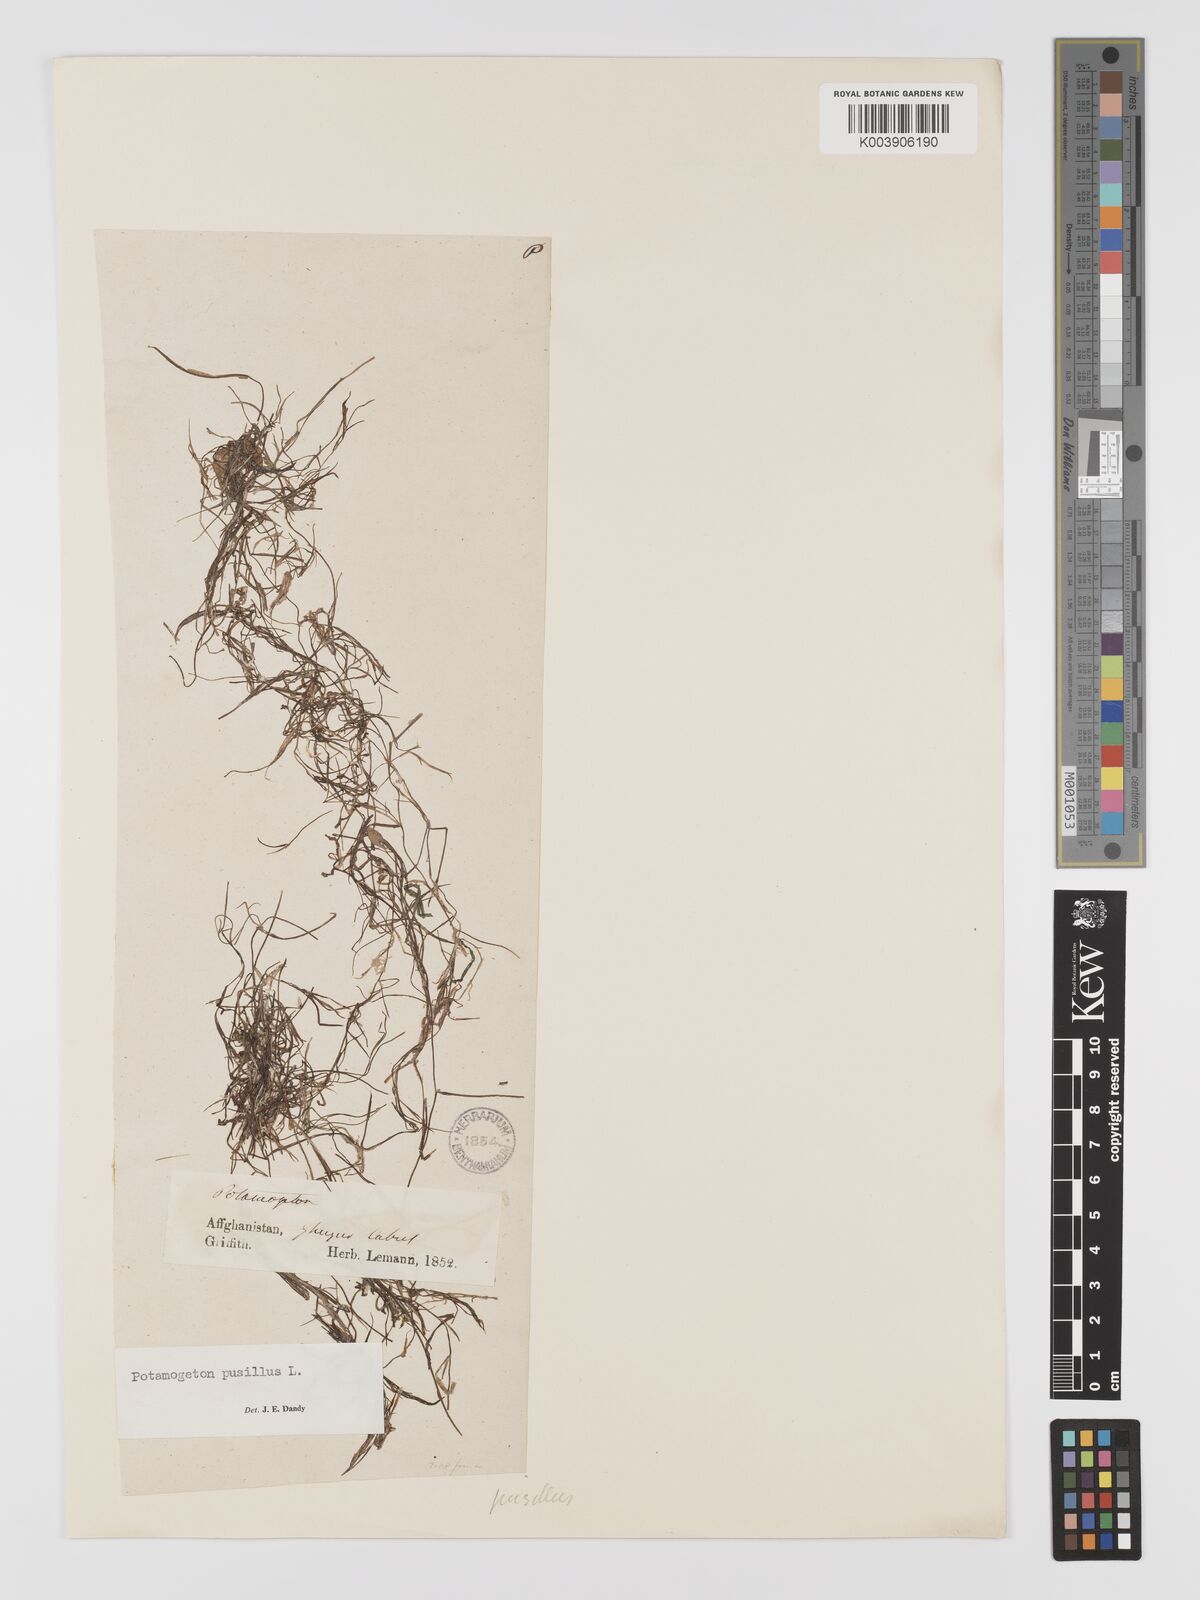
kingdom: Plantae
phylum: Tracheophyta
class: Liliopsida
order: Alismatales
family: Potamogetonaceae
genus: Potamogeton
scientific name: Potamogeton pusillus
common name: Lesser pondweed
